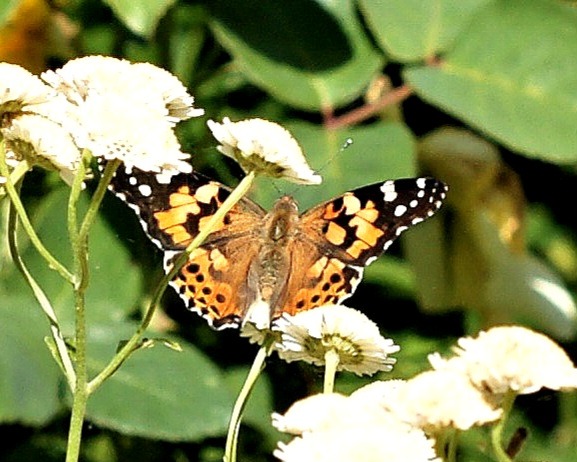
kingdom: Animalia
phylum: Arthropoda
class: Insecta
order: Lepidoptera
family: Nymphalidae
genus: Vanessa
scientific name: Vanessa cardui
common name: Tidselsommerfugl
